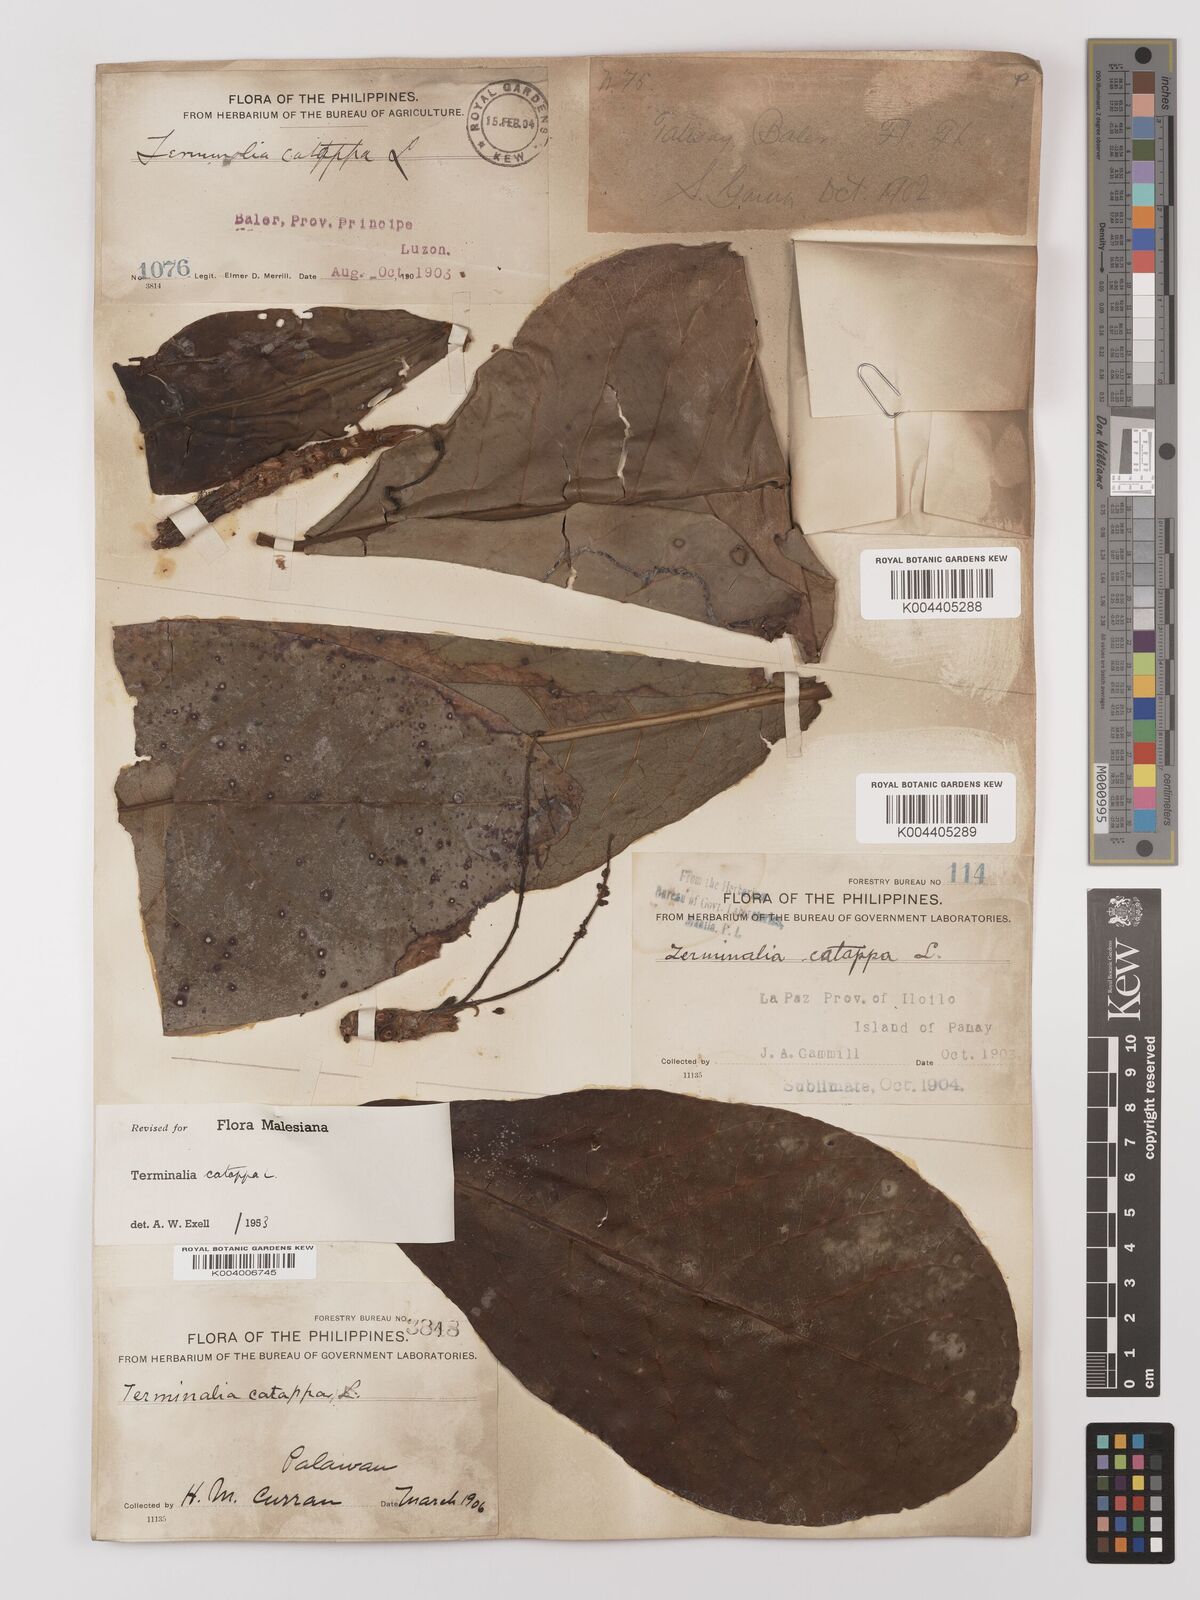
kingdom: Plantae
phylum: Tracheophyta
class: Magnoliopsida
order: Myrtales
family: Combretaceae
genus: Terminalia
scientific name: Terminalia catappa
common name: Tropical almond
